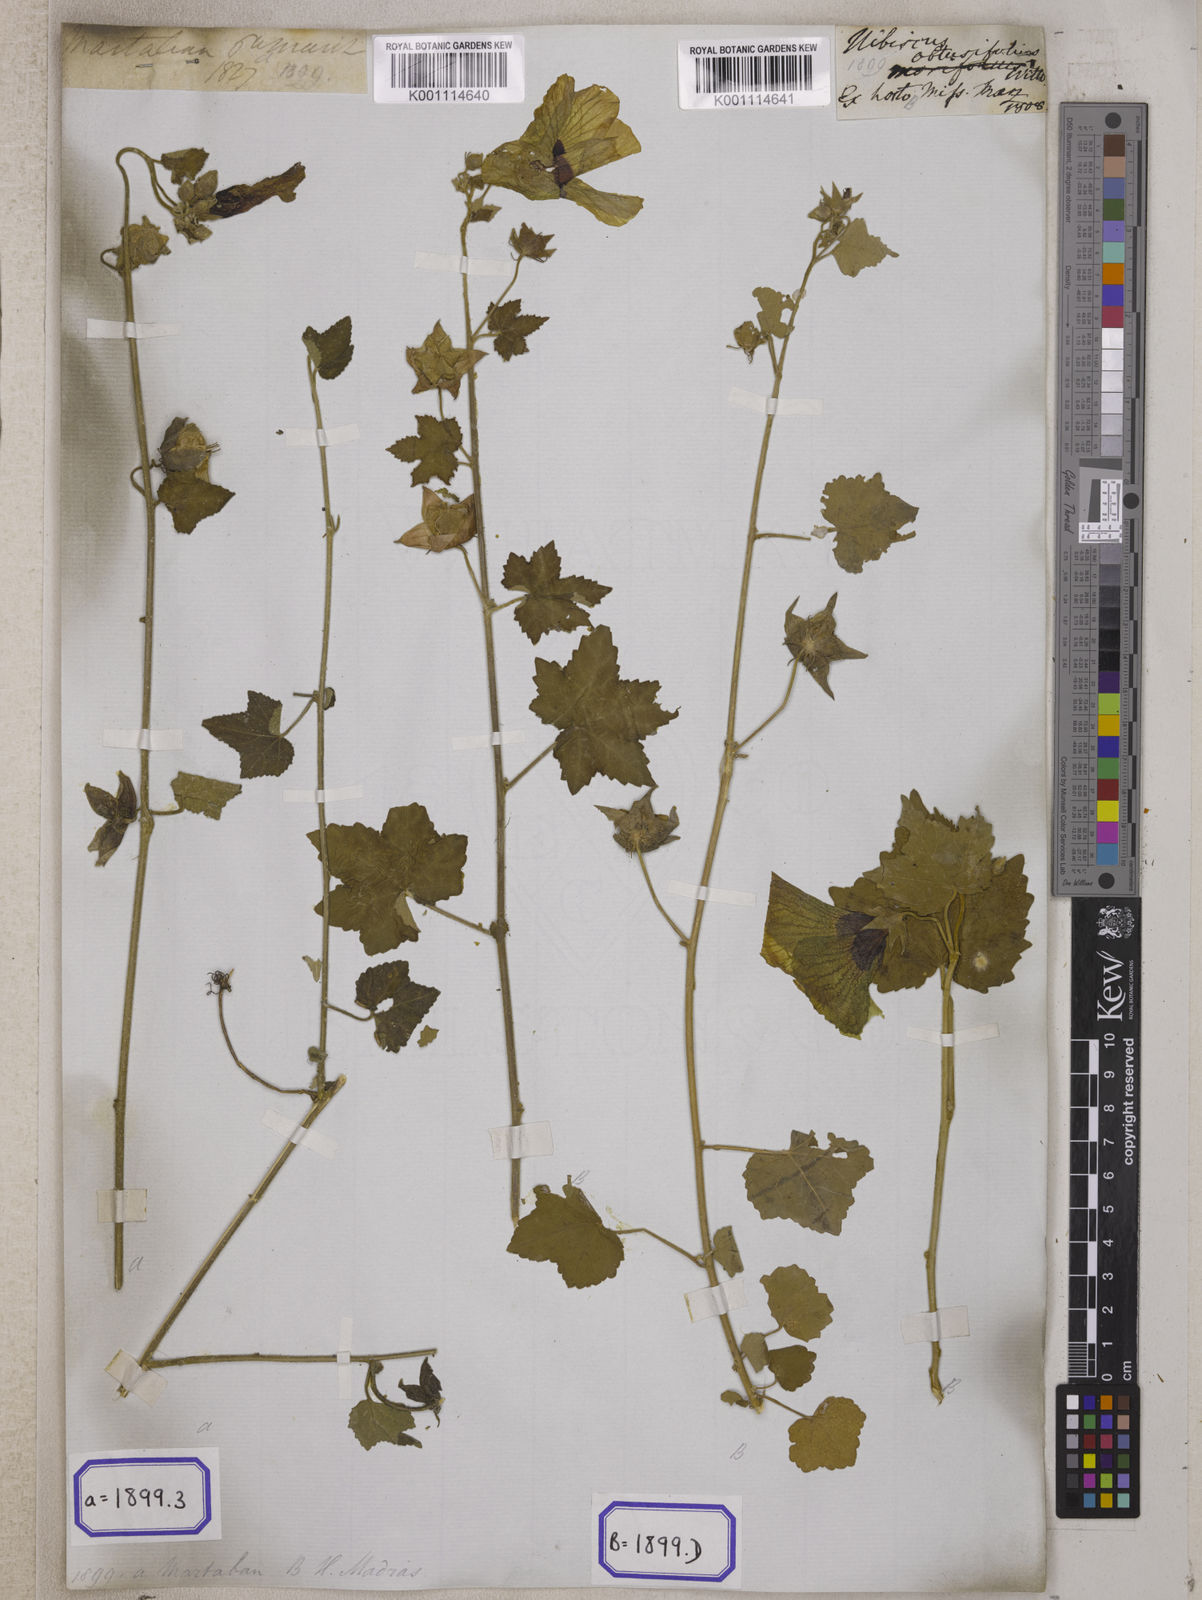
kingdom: Plantae
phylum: Tracheophyta
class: Magnoliopsida
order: Malvales
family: Malvaceae
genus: Hibiscus
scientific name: Hibiscus vitifolius
